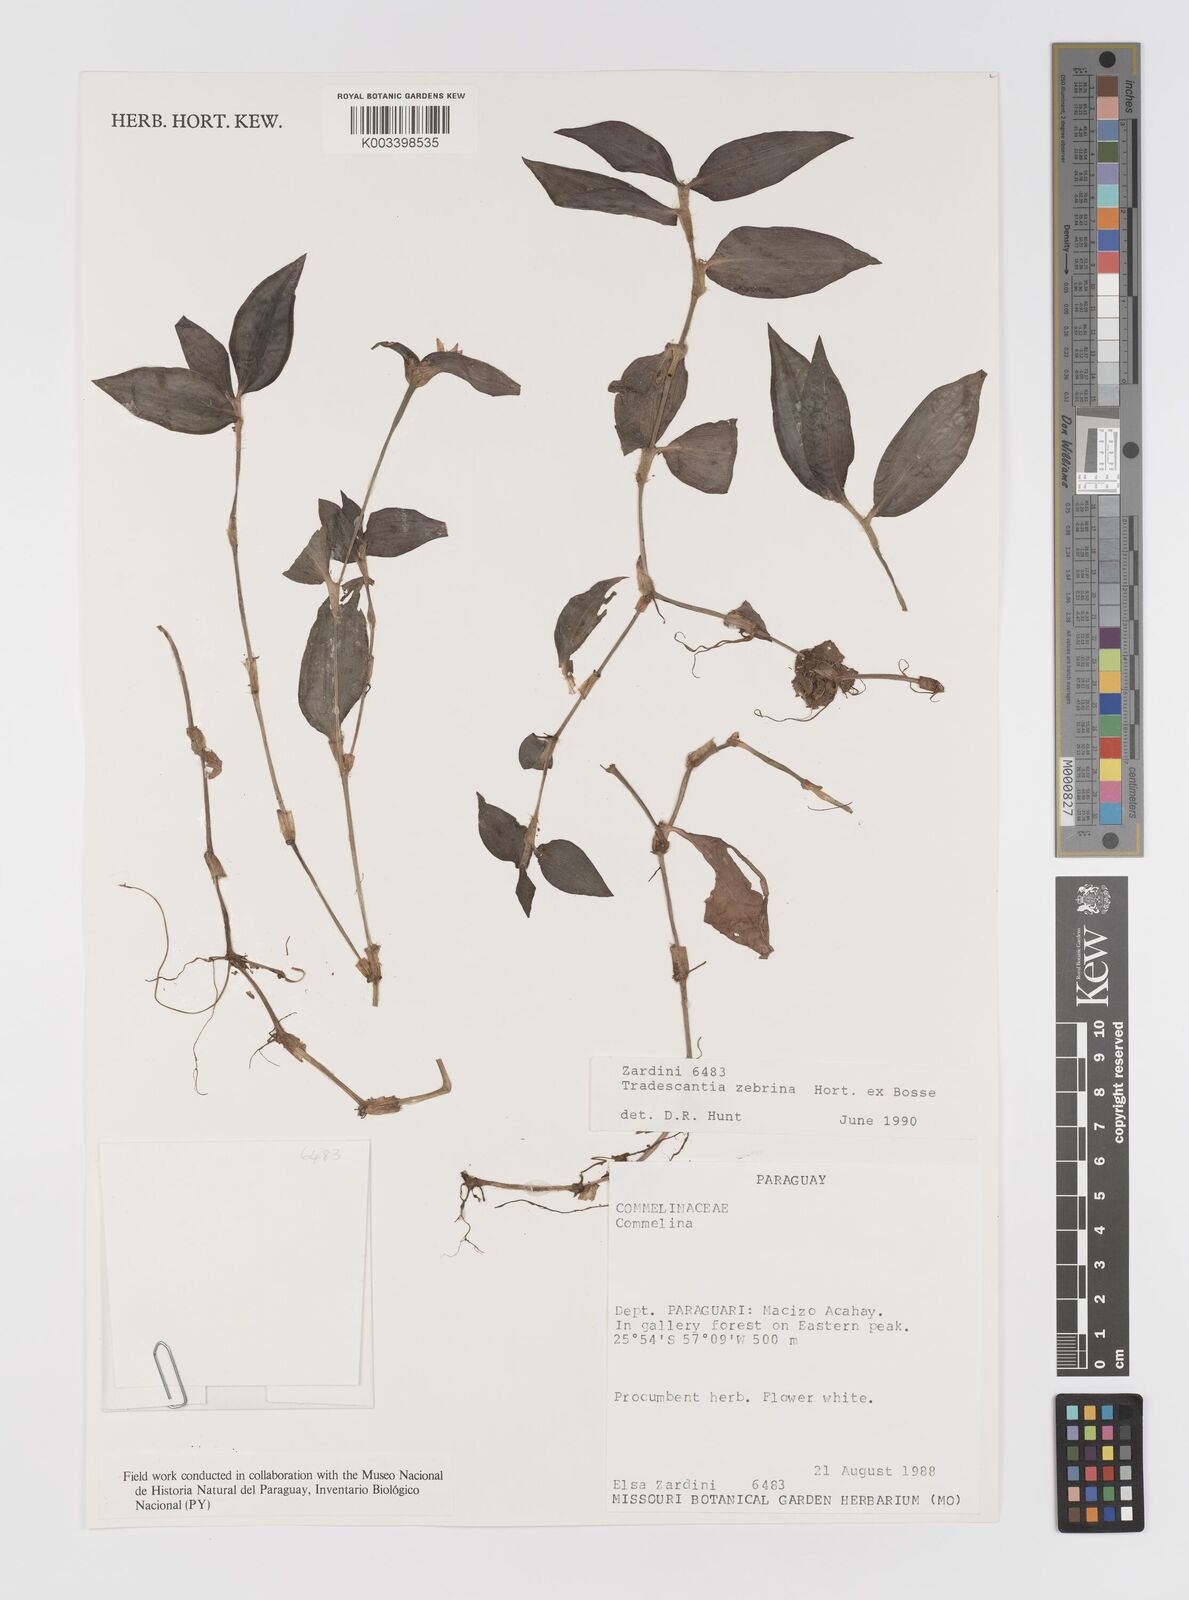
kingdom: Plantae
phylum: Tracheophyta
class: Liliopsida
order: Commelinales
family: Commelinaceae
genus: Tradescantia
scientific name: Tradescantia zebrina
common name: Inchplant
